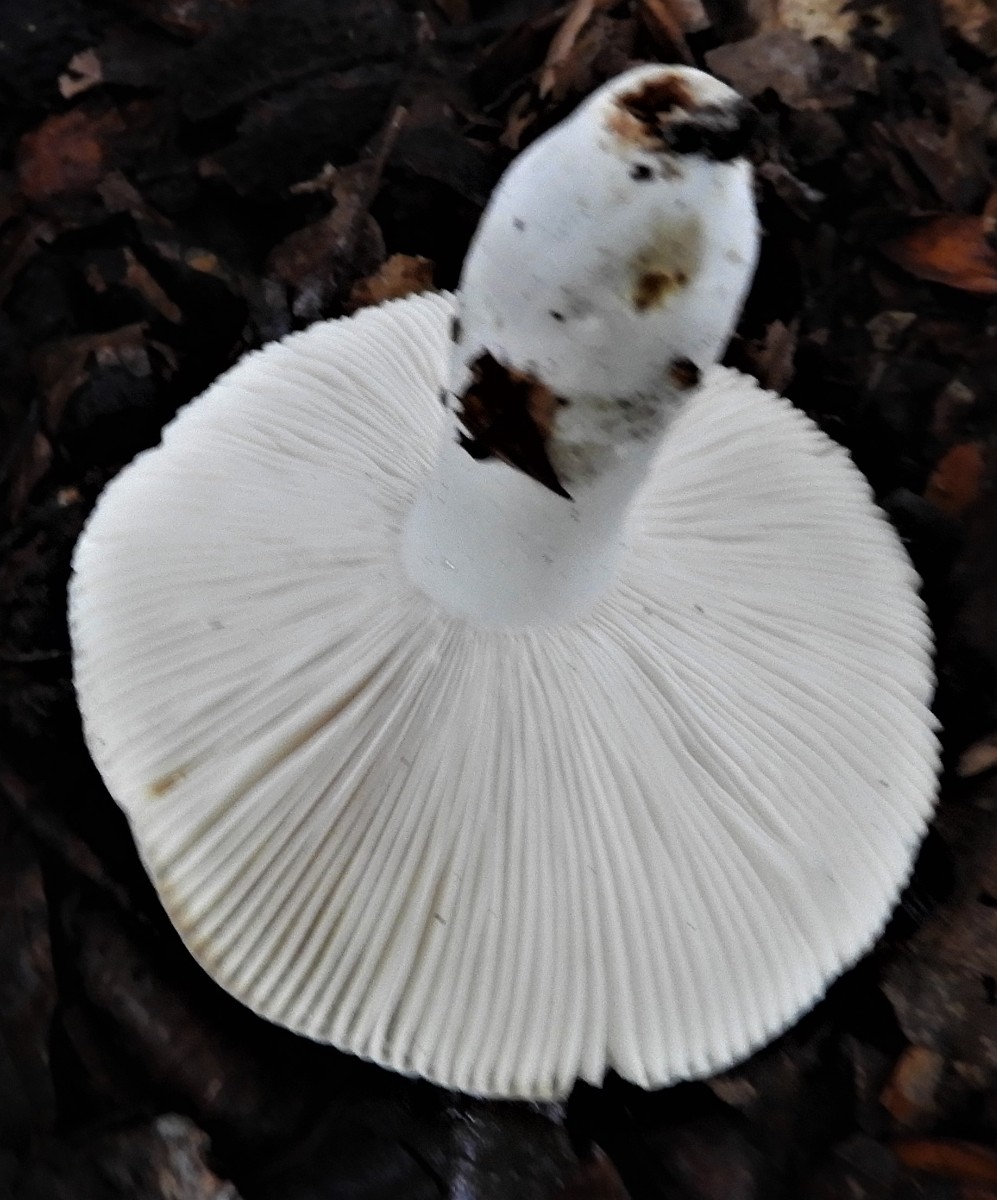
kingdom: Fungi
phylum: Basidiomycota
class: Agaricomycetes
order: Russulales
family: Russulaceae
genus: Russula
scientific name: Russula
